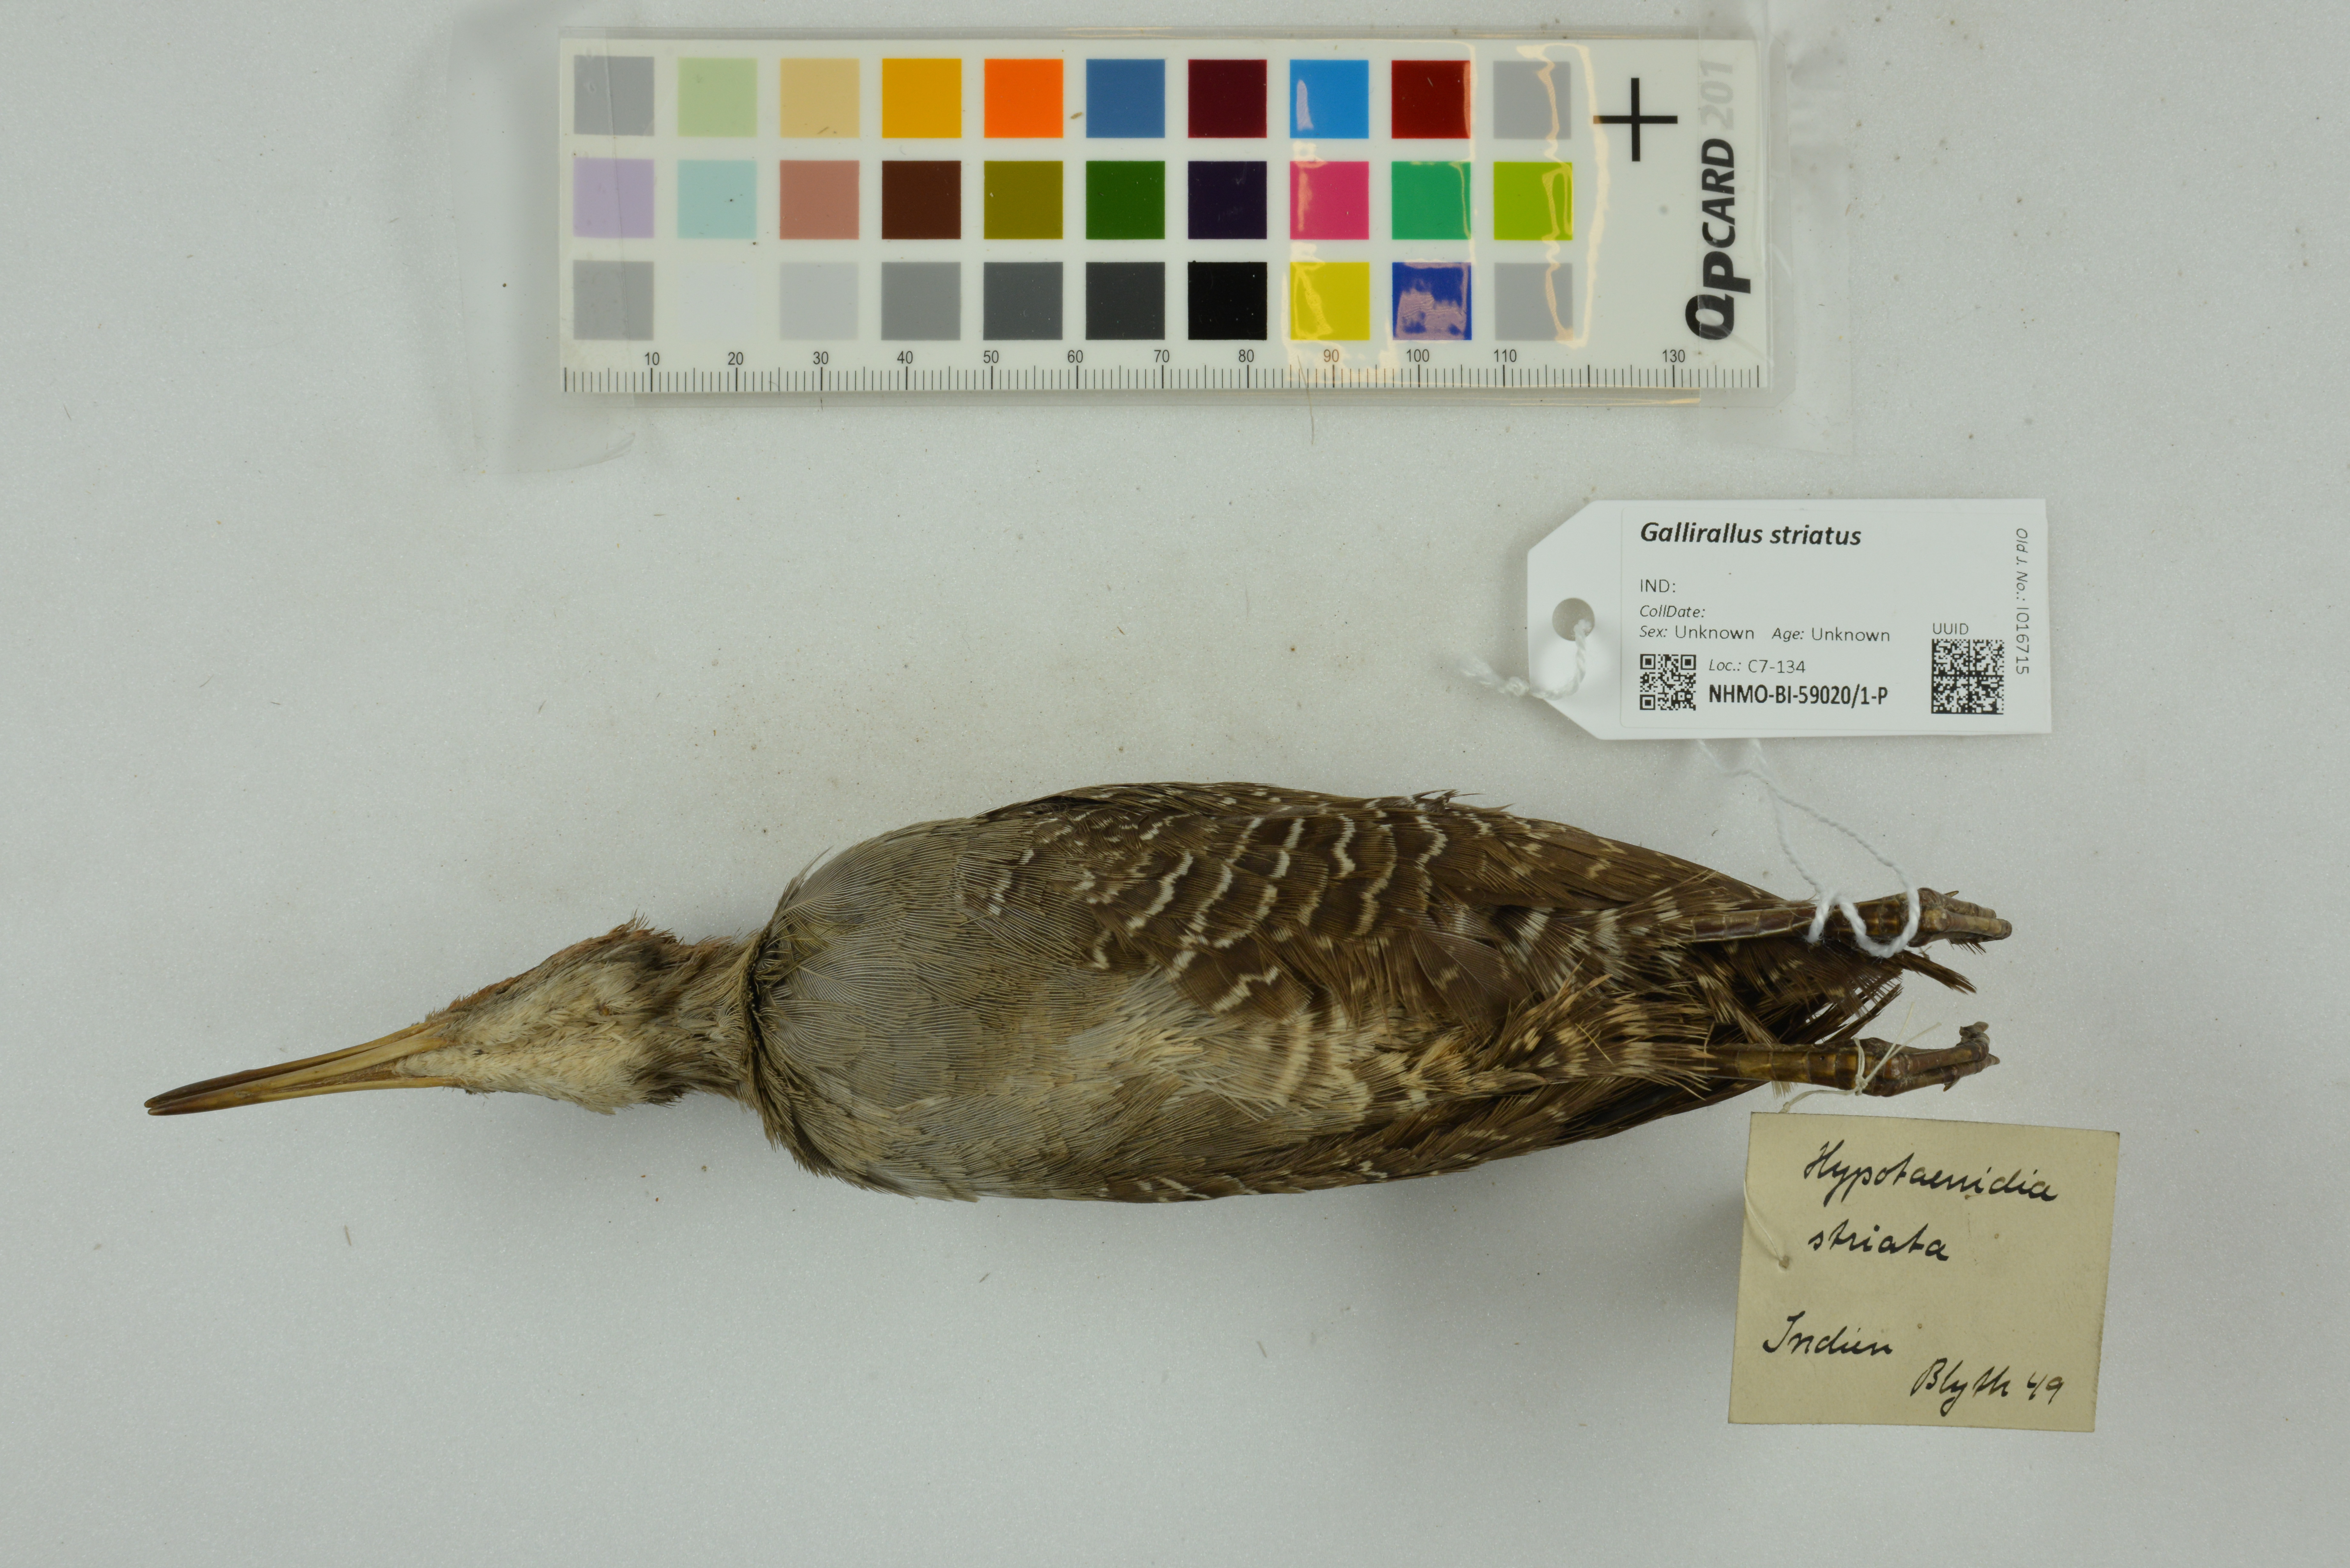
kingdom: Animalia
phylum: Chordata
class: Aves
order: Gruiformes
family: Rallidae
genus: Gallirallus
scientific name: Gallirallus striatus
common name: Slaty-breasted rail
